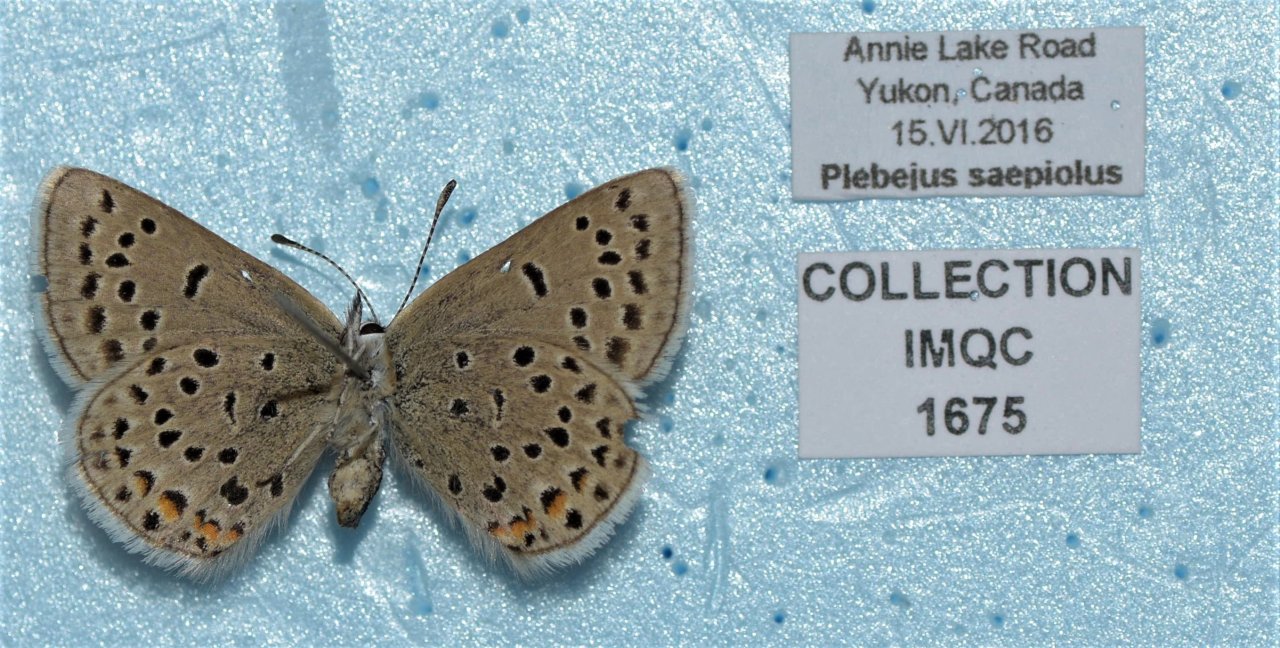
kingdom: Animalia
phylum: Arthropoda
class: Insecta
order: Lepidoptera
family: Lycaenidae
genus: Lycaeides
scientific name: Lycaeides idas
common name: Northern Blue
